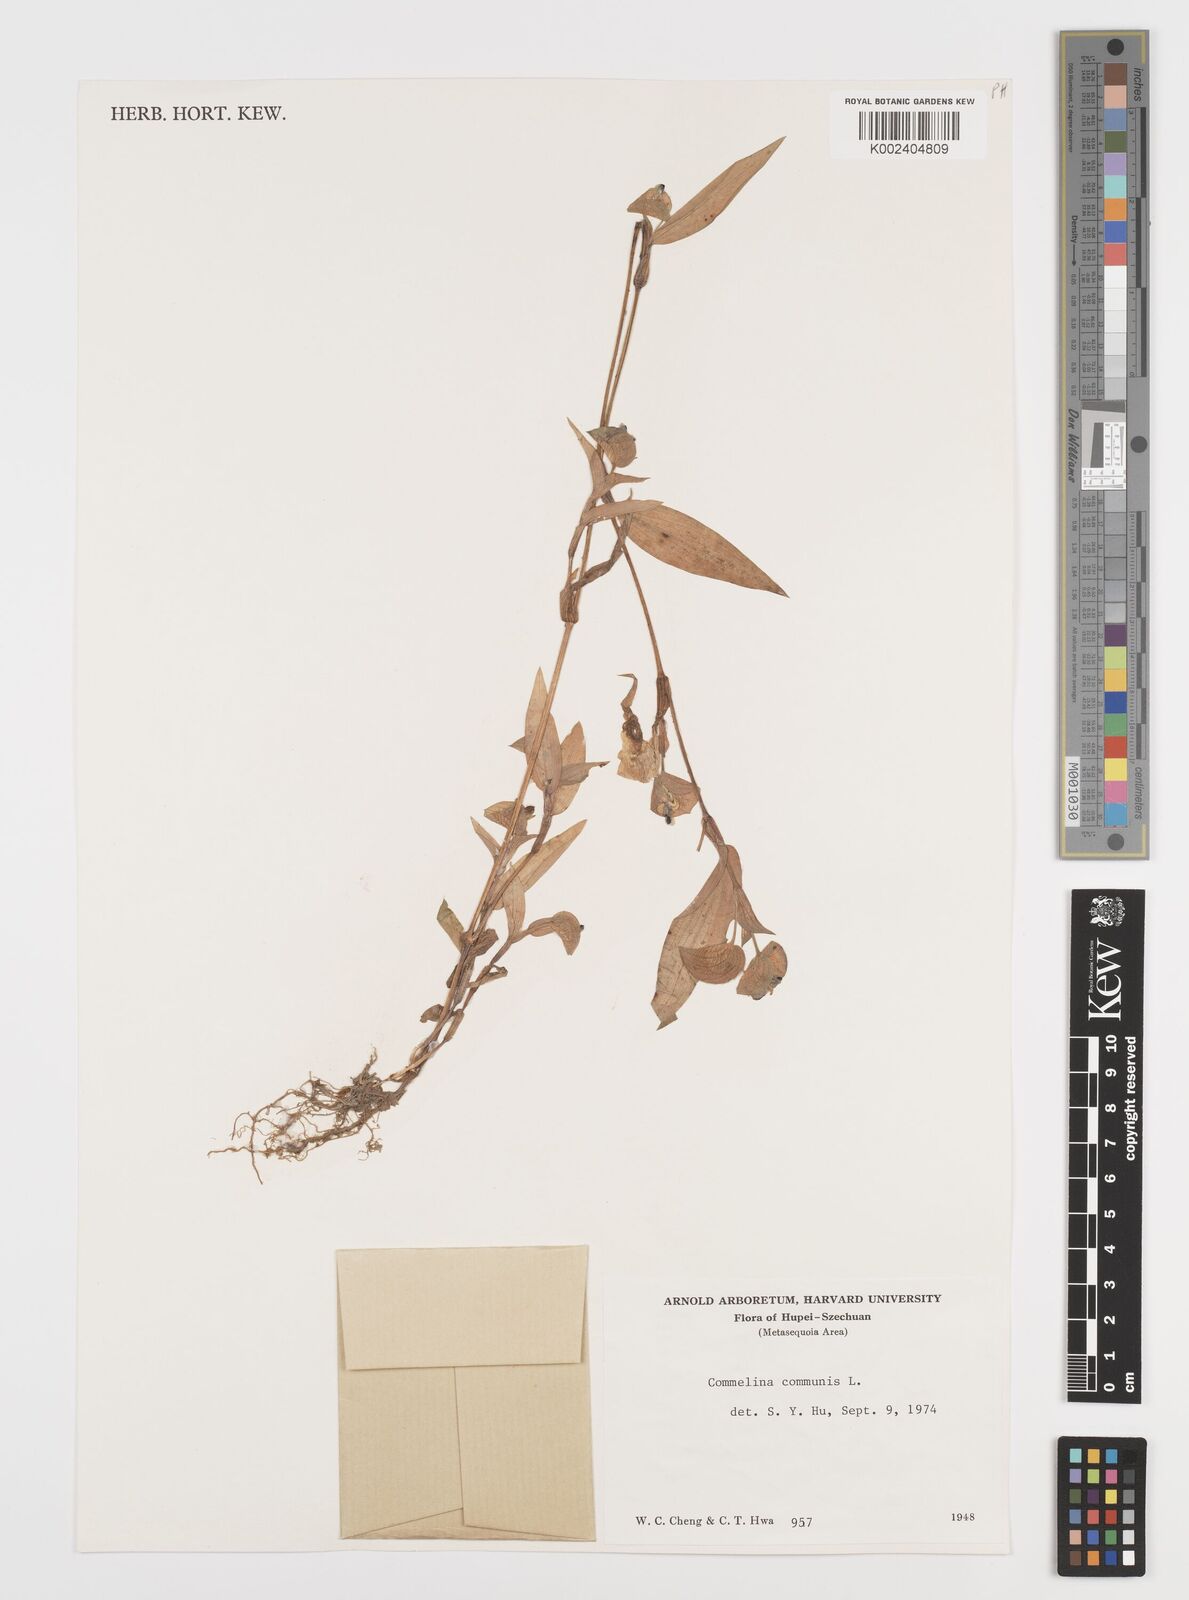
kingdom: Plantae
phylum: Tracheophyta
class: Liliopsida
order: Commelinales
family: Commelinaceae
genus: Commelina
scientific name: Commelina communis
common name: Asiatic dayflower
